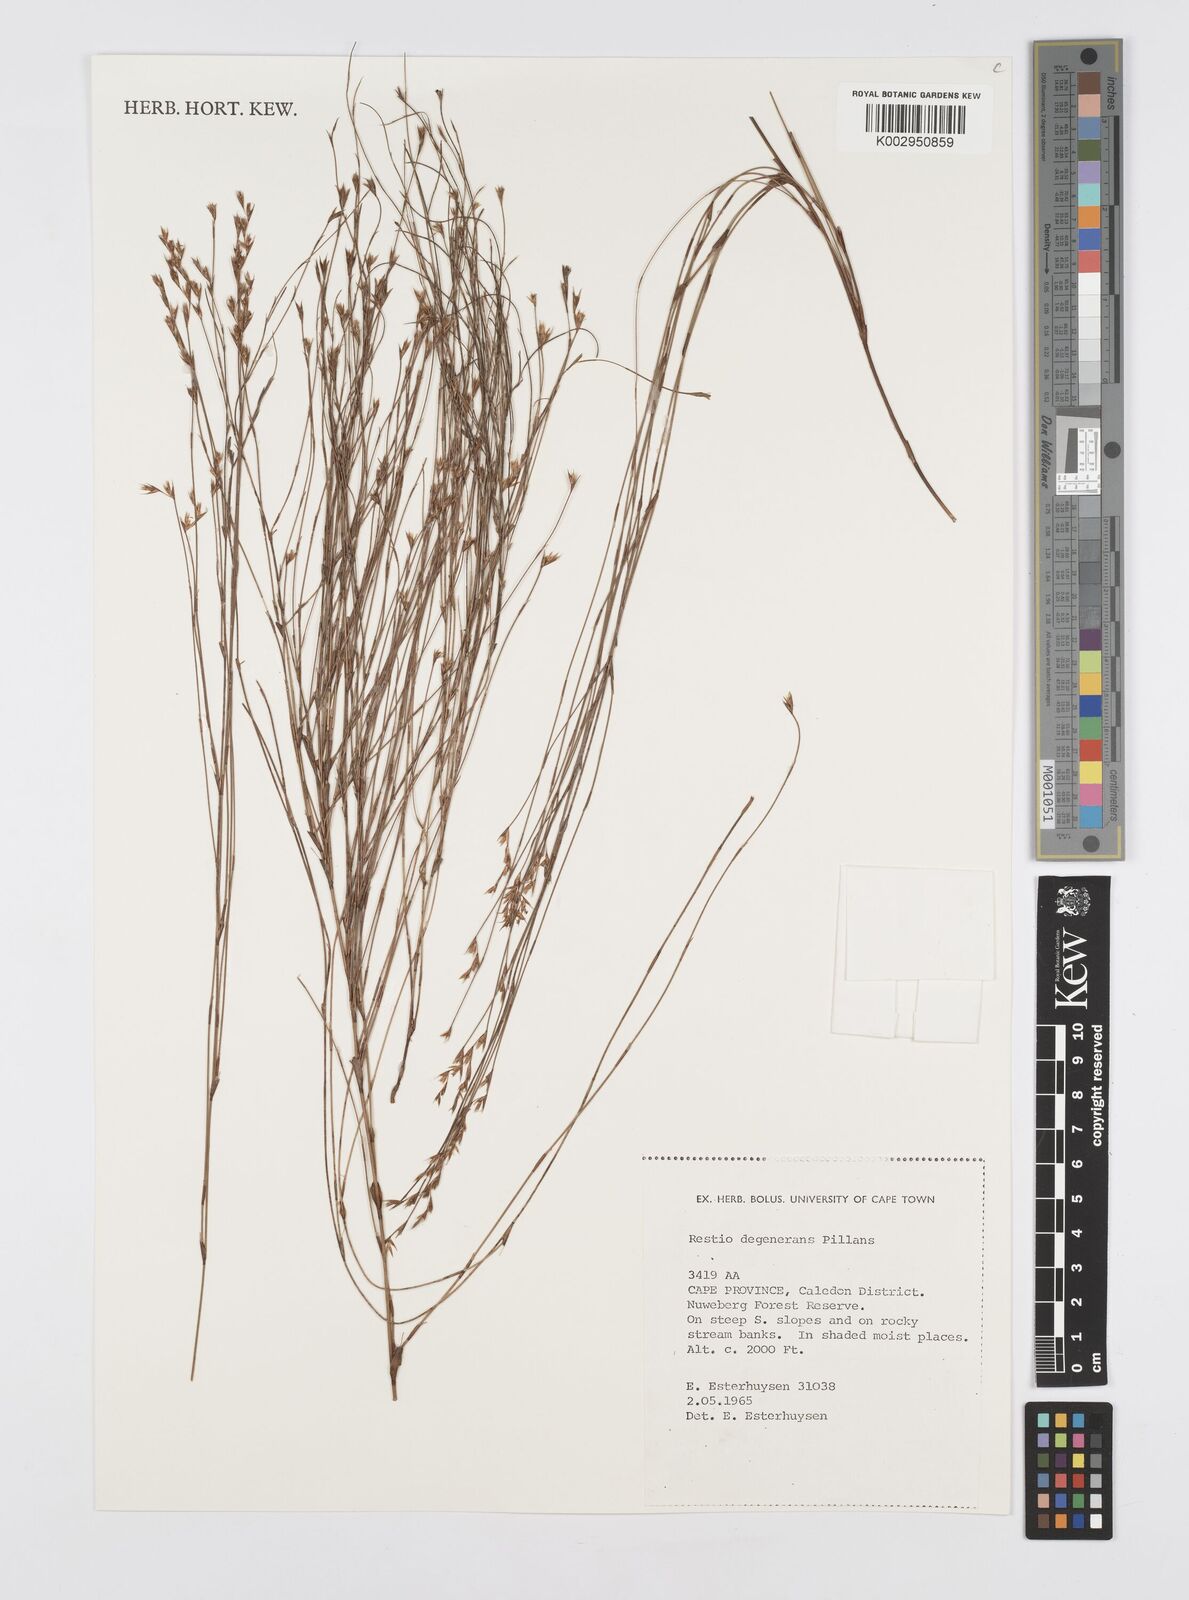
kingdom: Plantae
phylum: Tracheophyta
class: Liliopsida
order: Poales
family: Restionaceae
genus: Restio
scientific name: Restio degenerans
